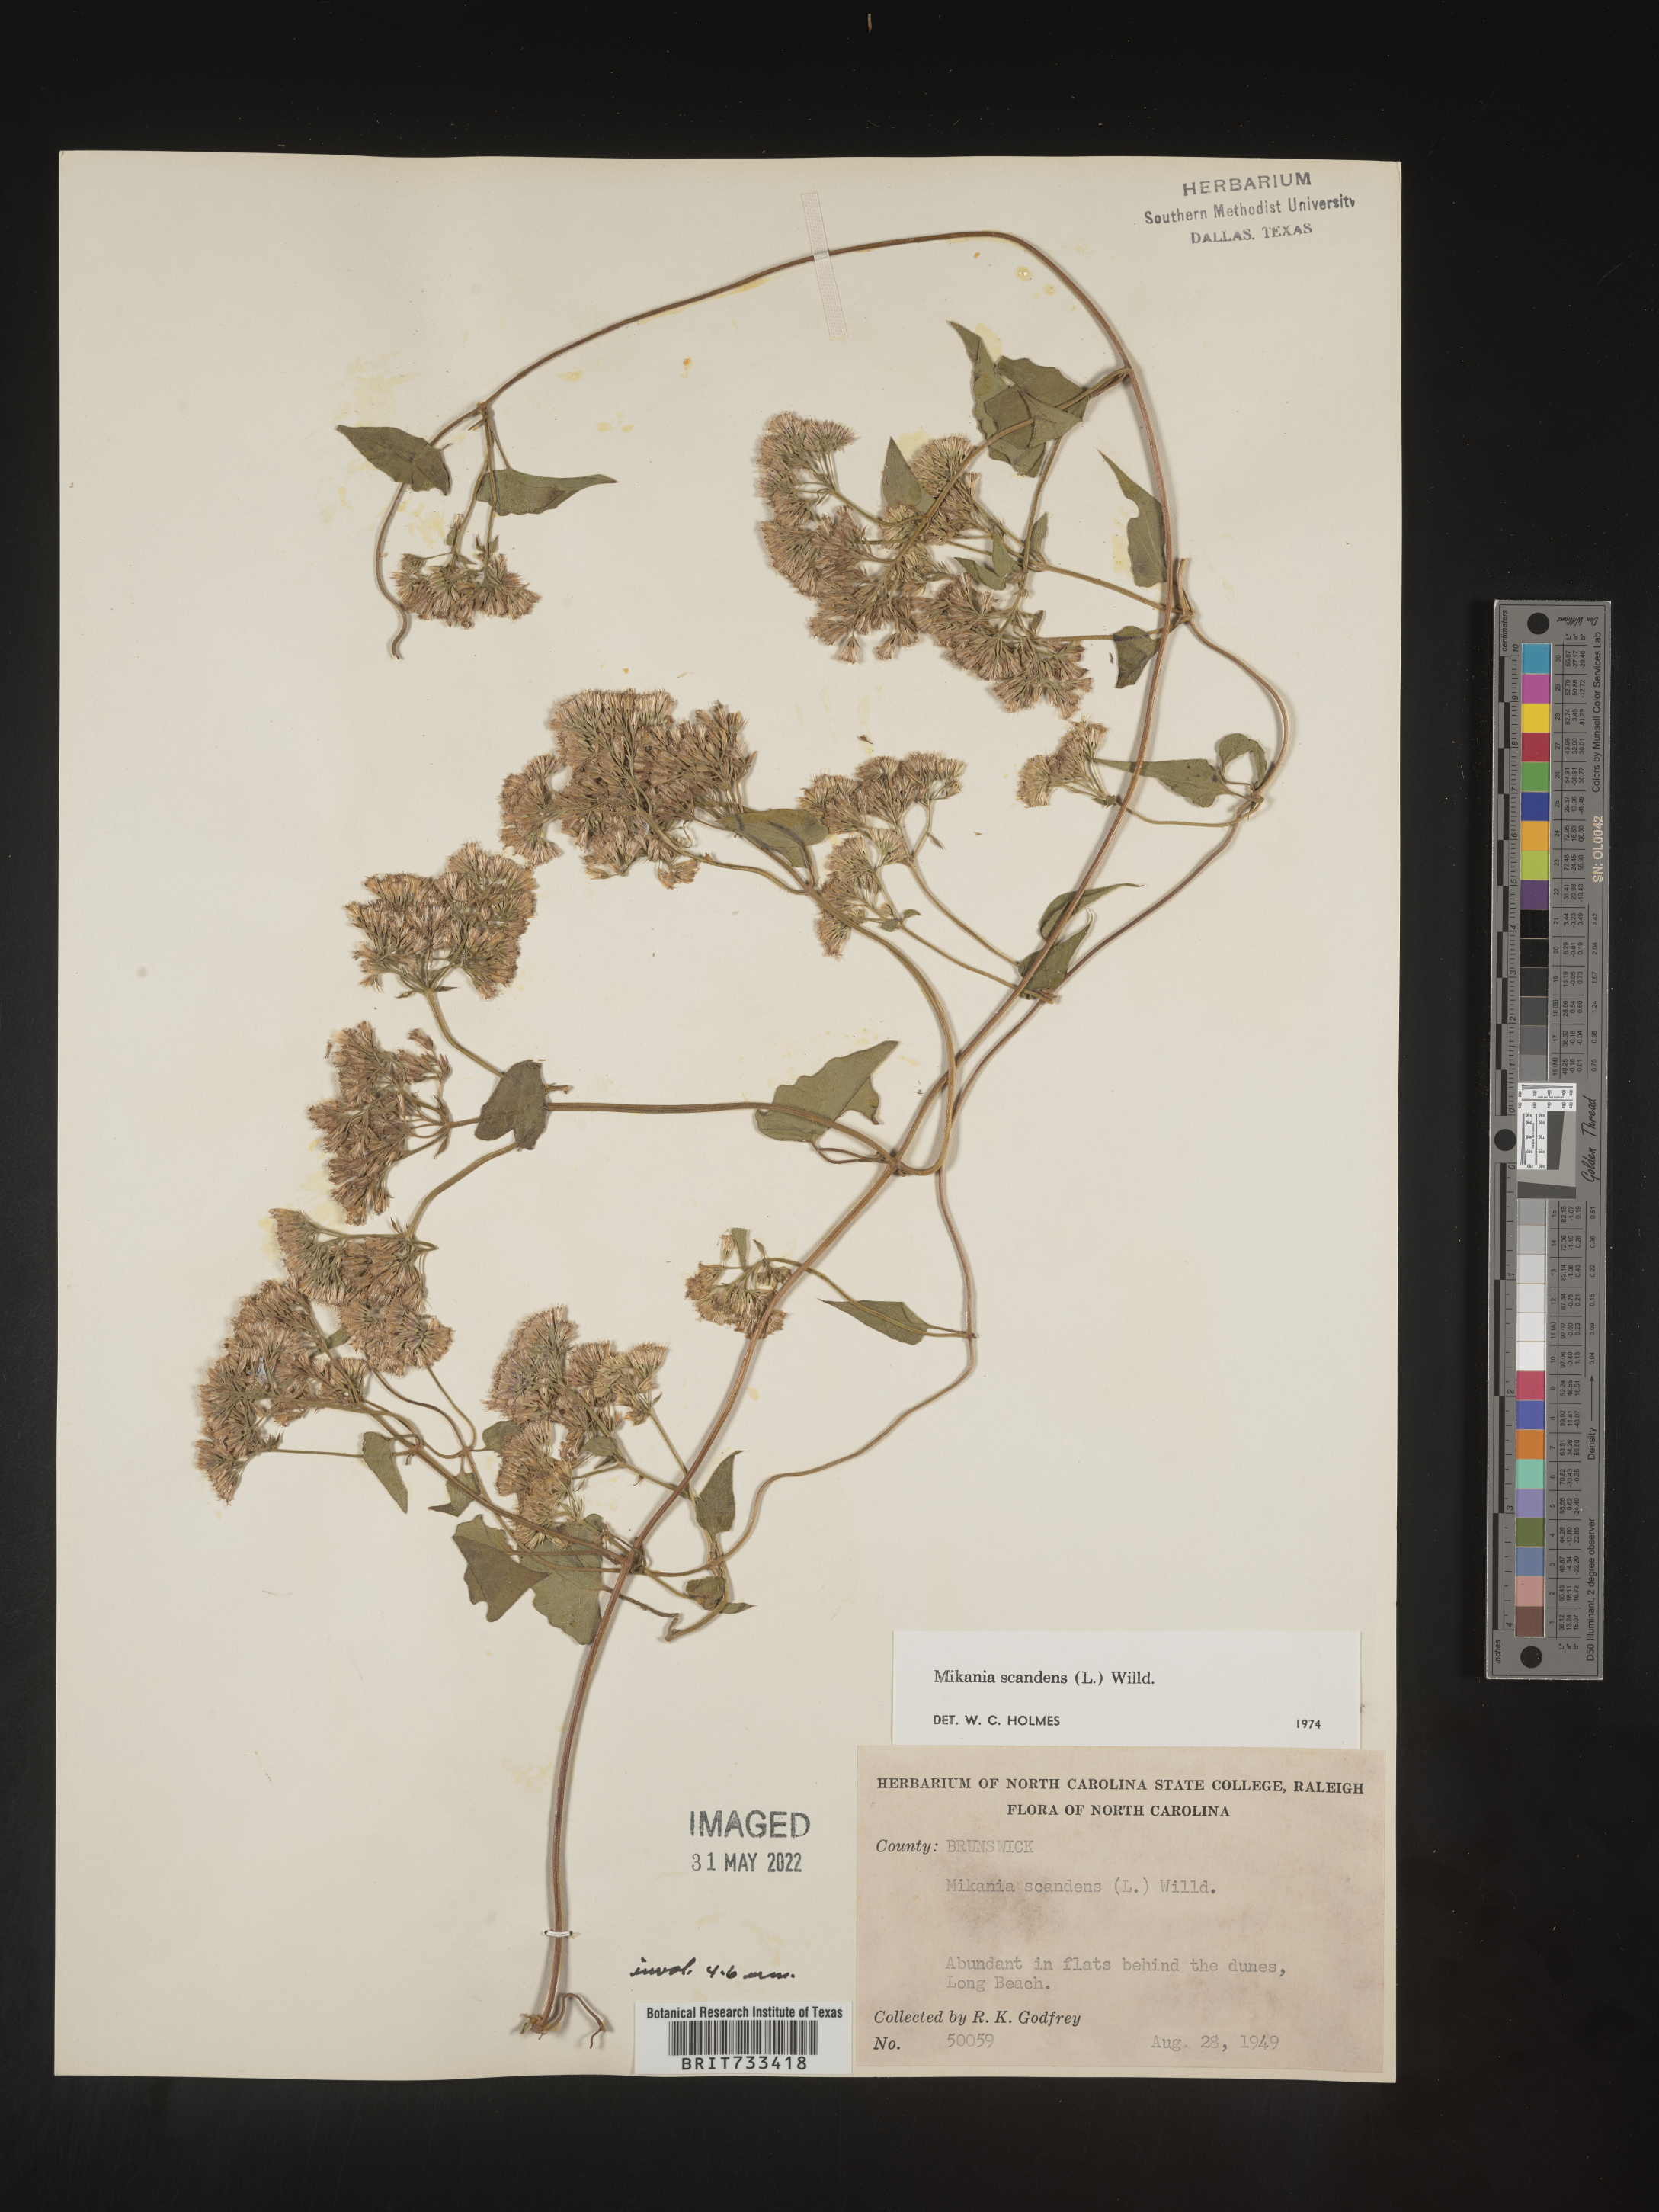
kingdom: Plantae
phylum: Tracheophyta
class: Magnoliopsida
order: Asterales
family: Asteraceae
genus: Mikania
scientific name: Mikania scandens
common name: Climbing hempvine
